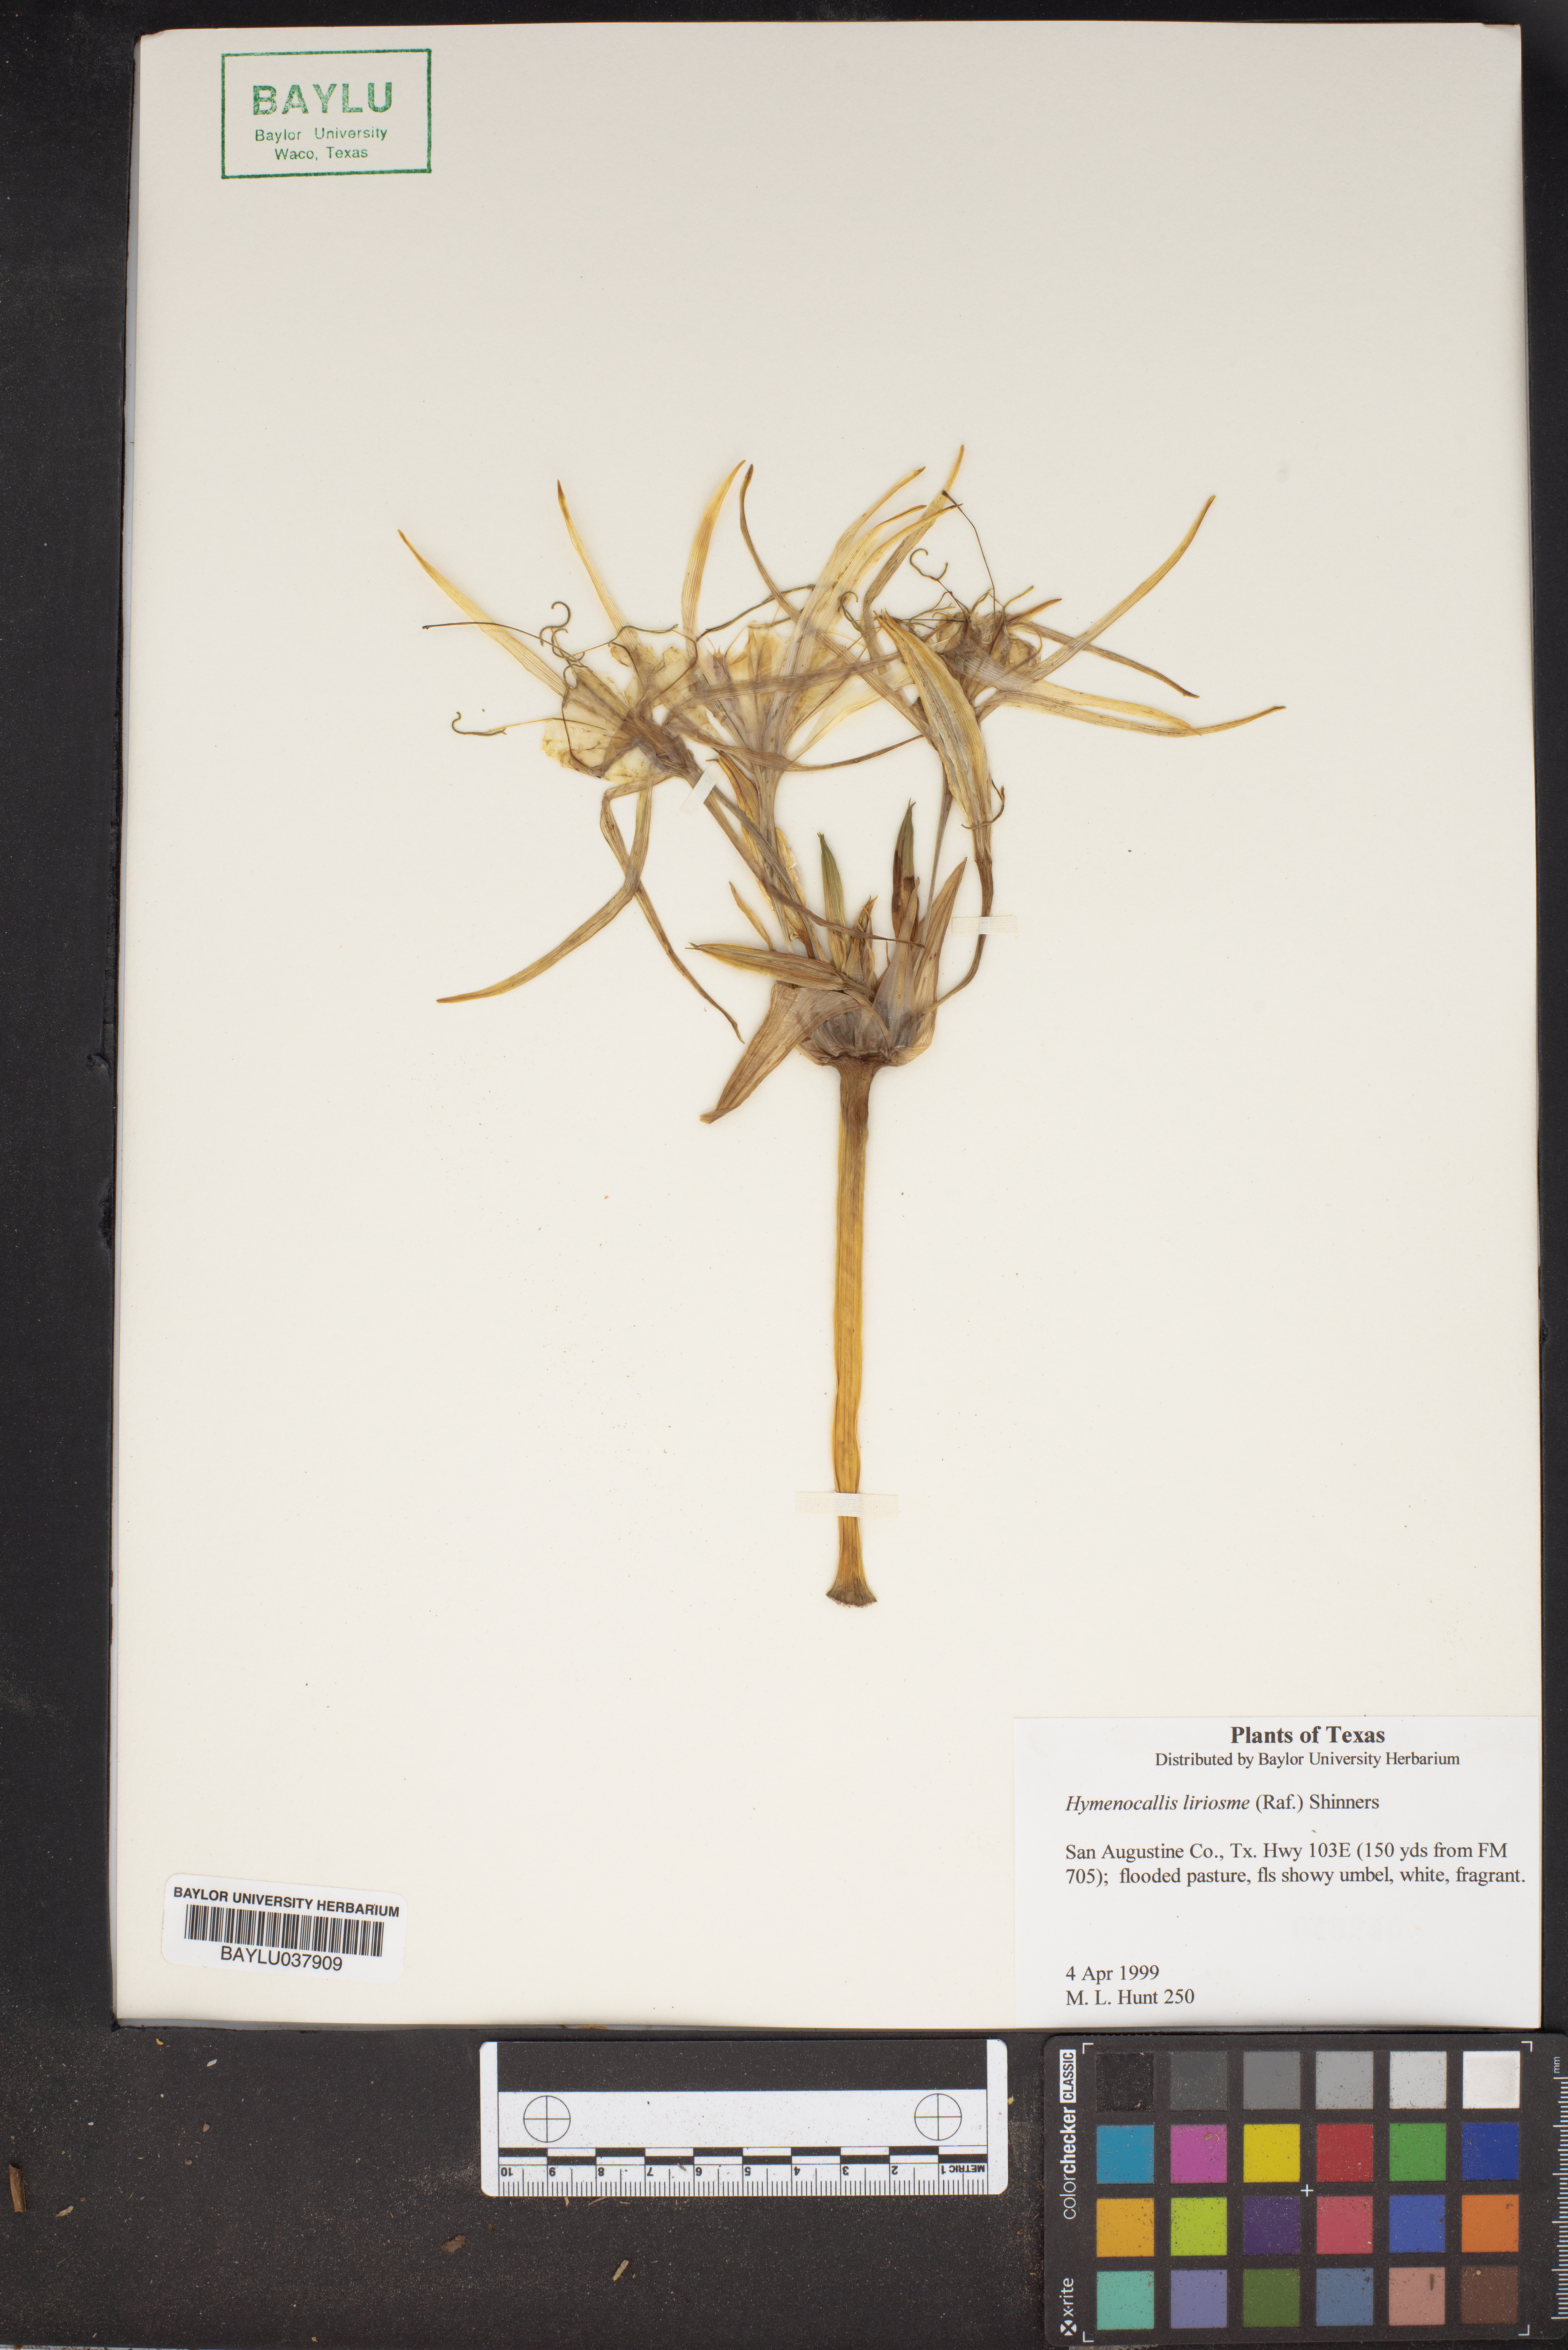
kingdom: Plantae
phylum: Tracheophyta
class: Liliopsida
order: Asparagales
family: Amaryllidaceae
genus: Hymenocallis
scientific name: Hymenocallis liriosme
